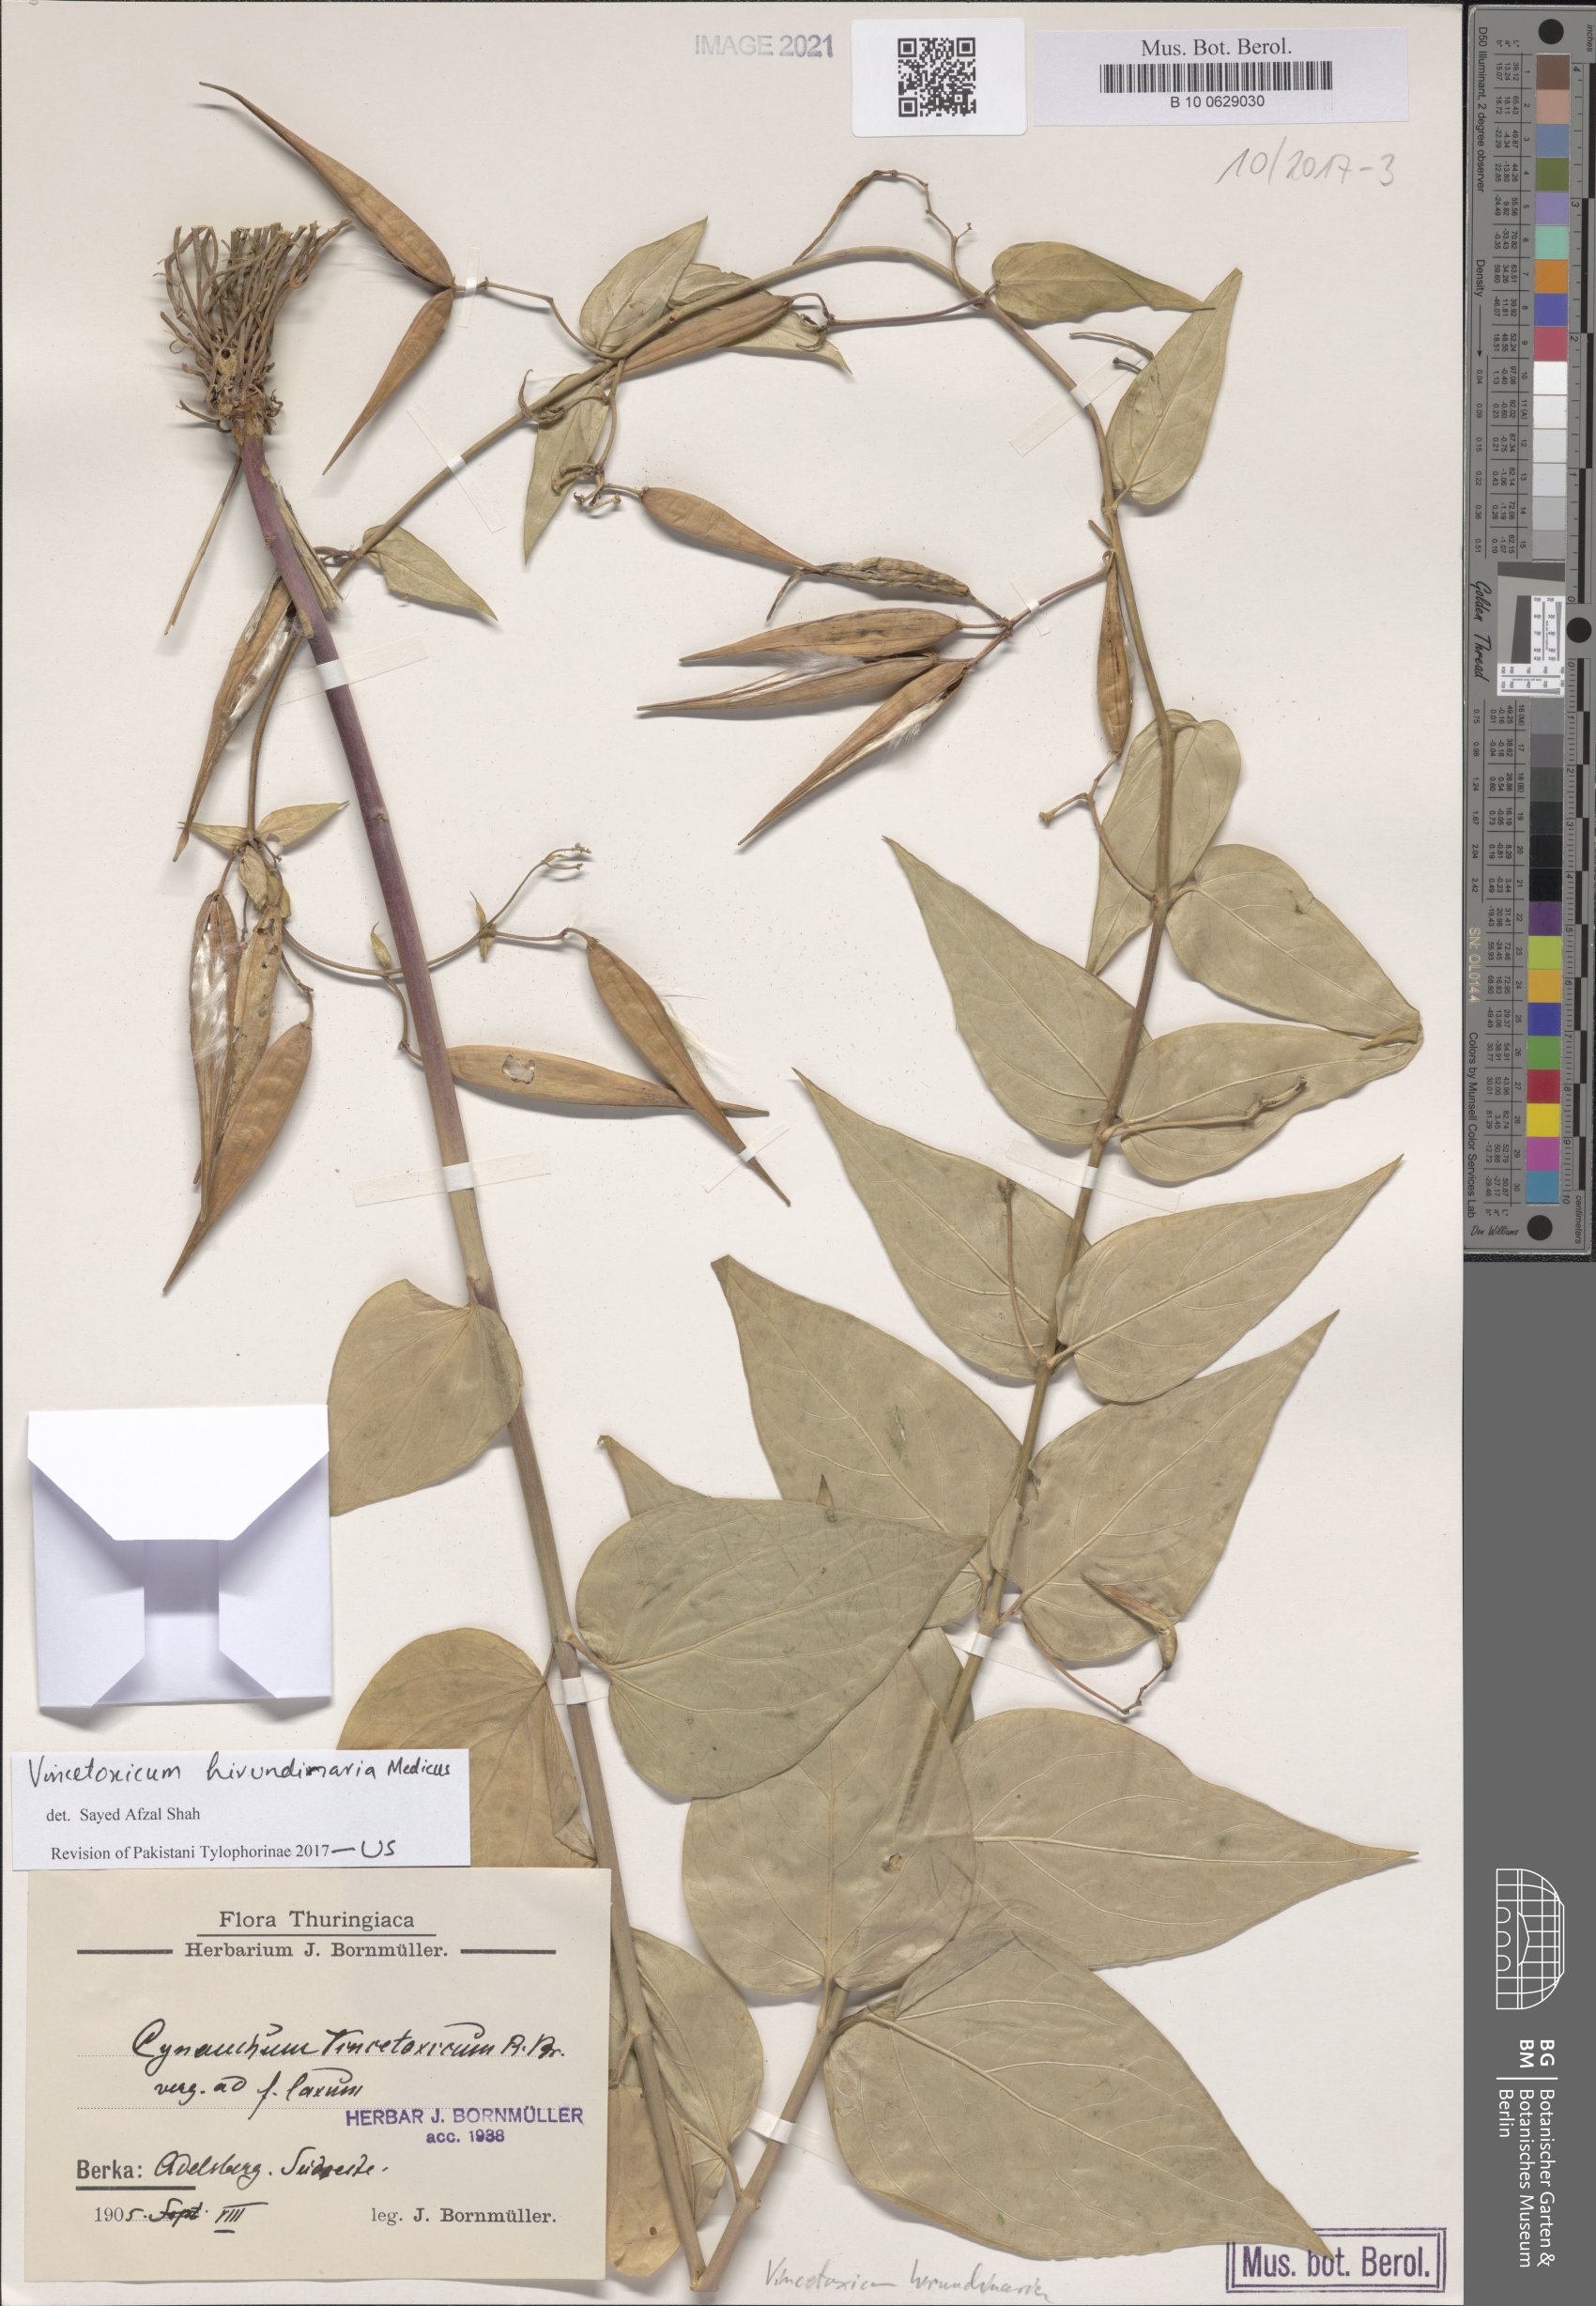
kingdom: Plantae
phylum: Tracheophyta
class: Magnoliopsida
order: Gentianales
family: Apocynaceae
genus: Vincetoxicum
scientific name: Vincetoxicum hirundinaria
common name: White swallowwort
